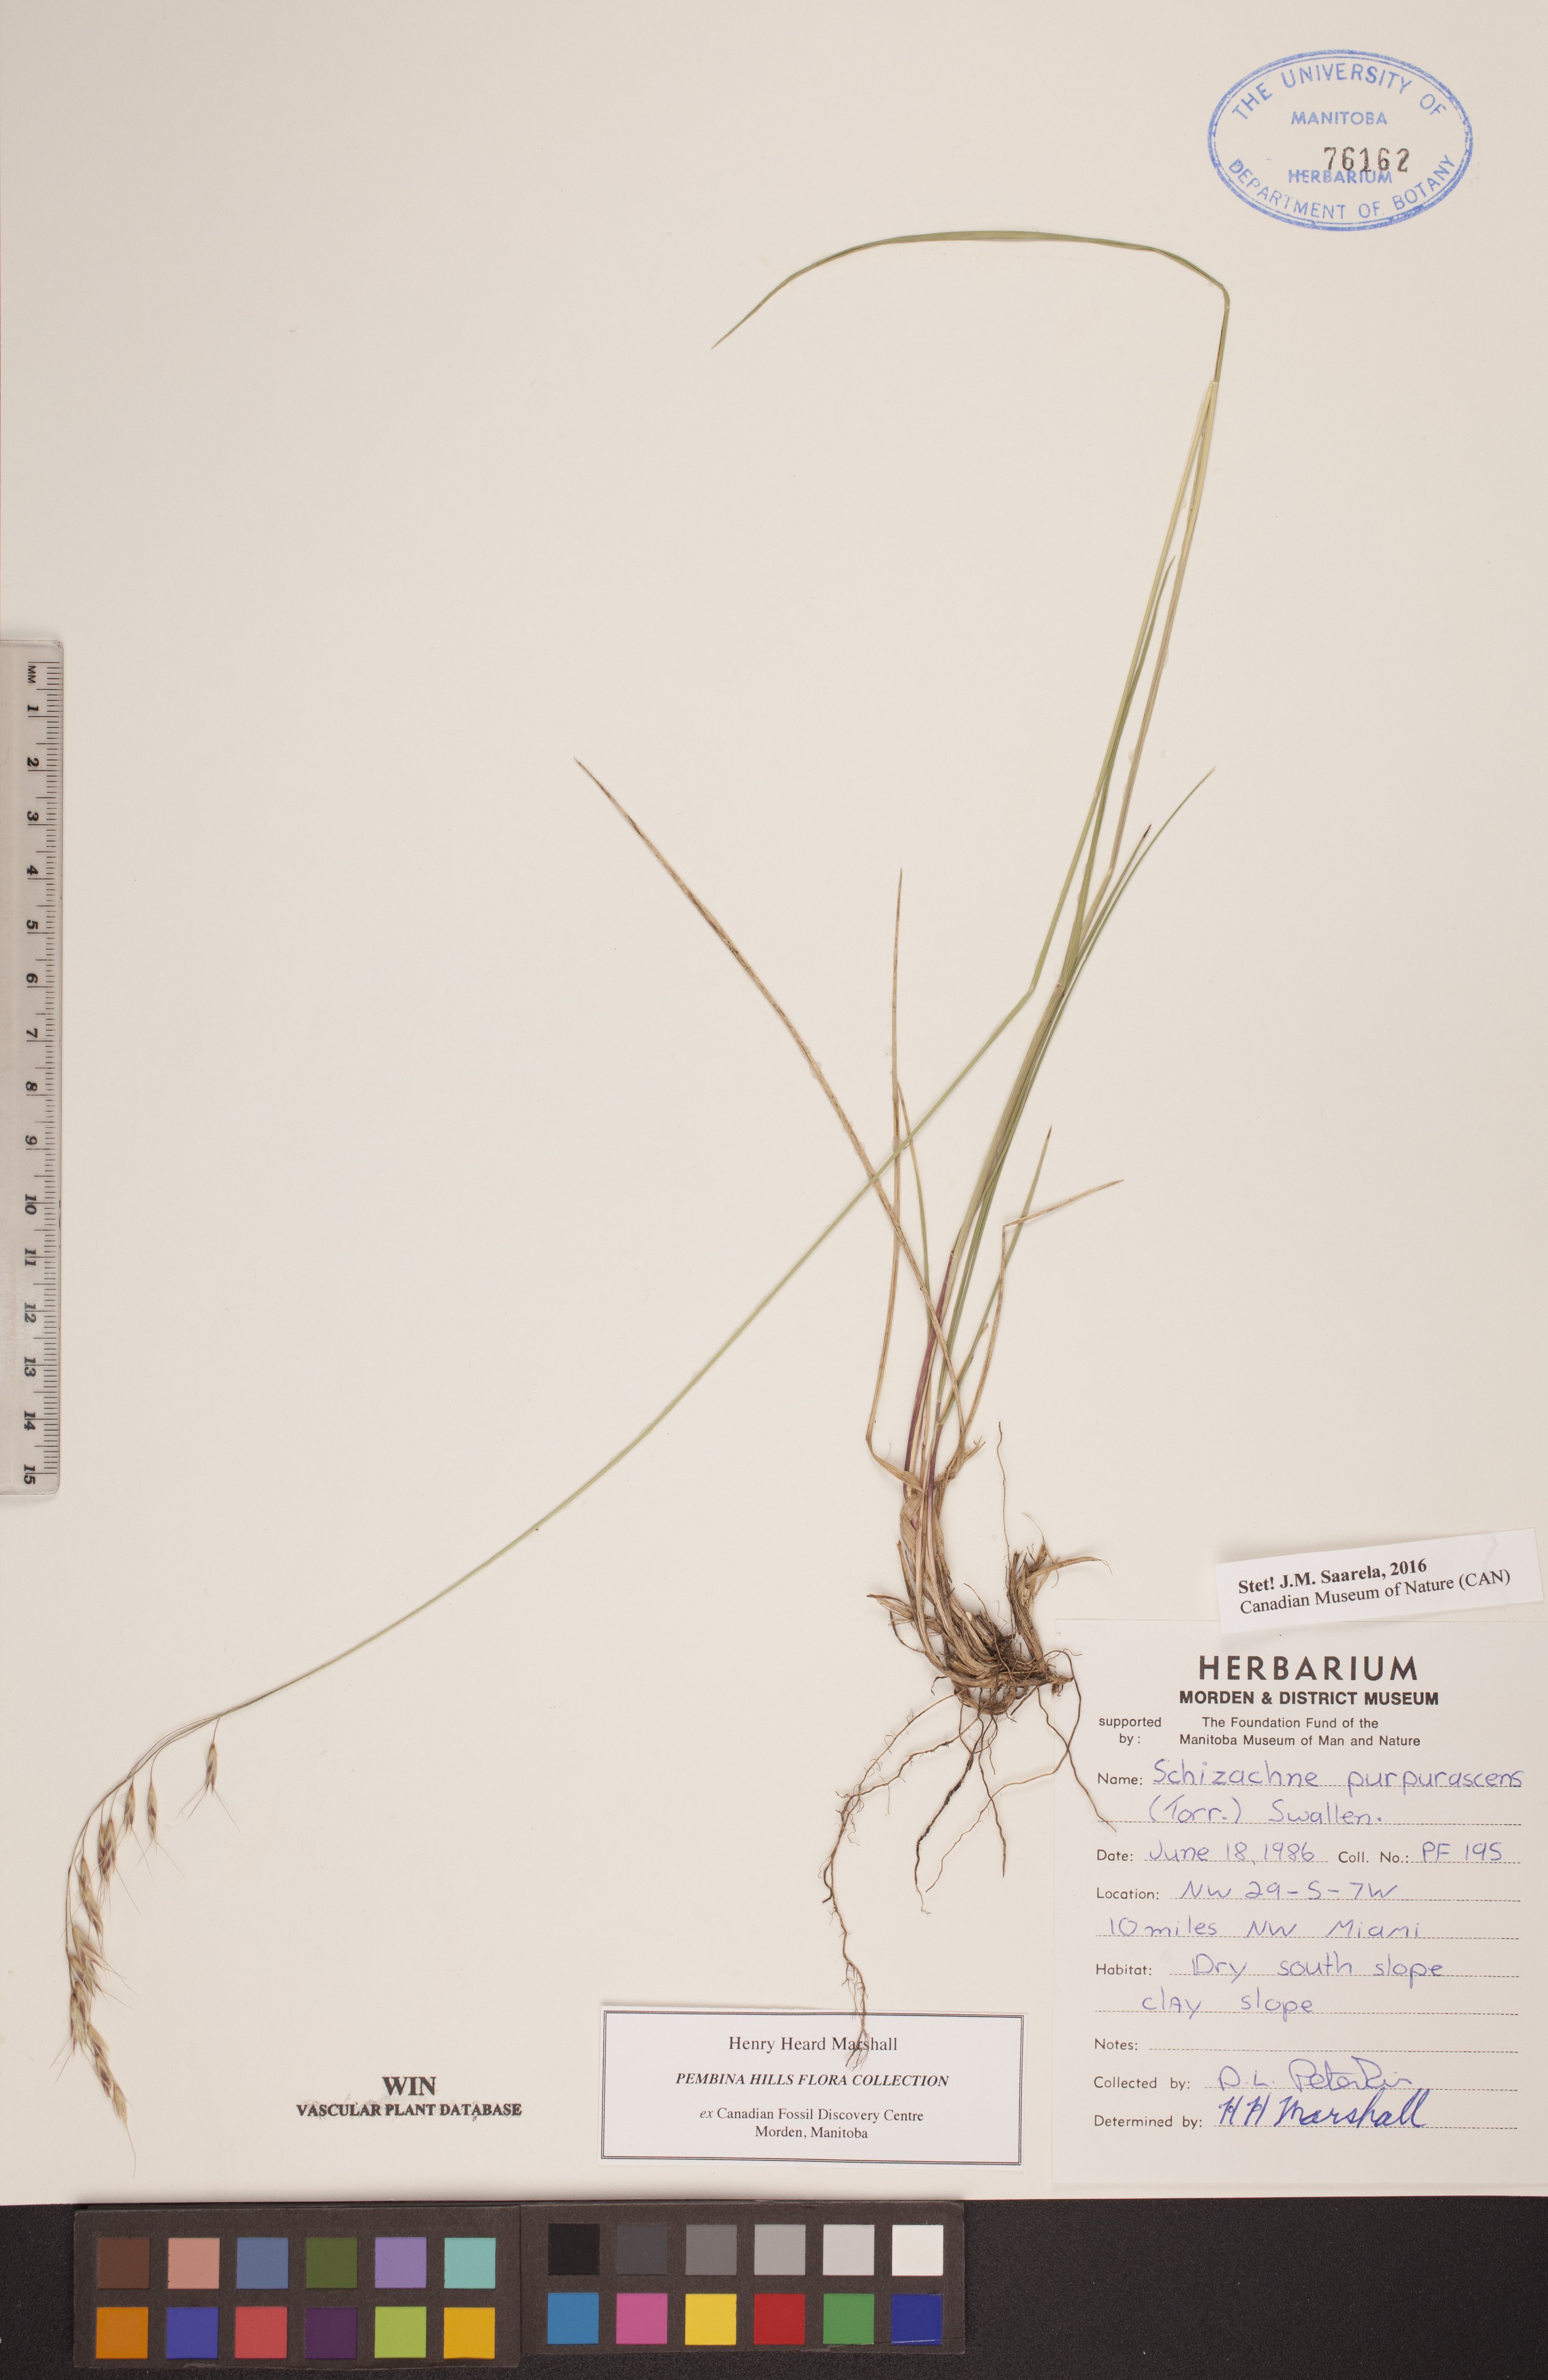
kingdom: Plantae
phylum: Tracheophyta
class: Liliopsida
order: Poales
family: Poaceae
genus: Schizachne
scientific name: Schizachne purpurascens
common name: False melic
